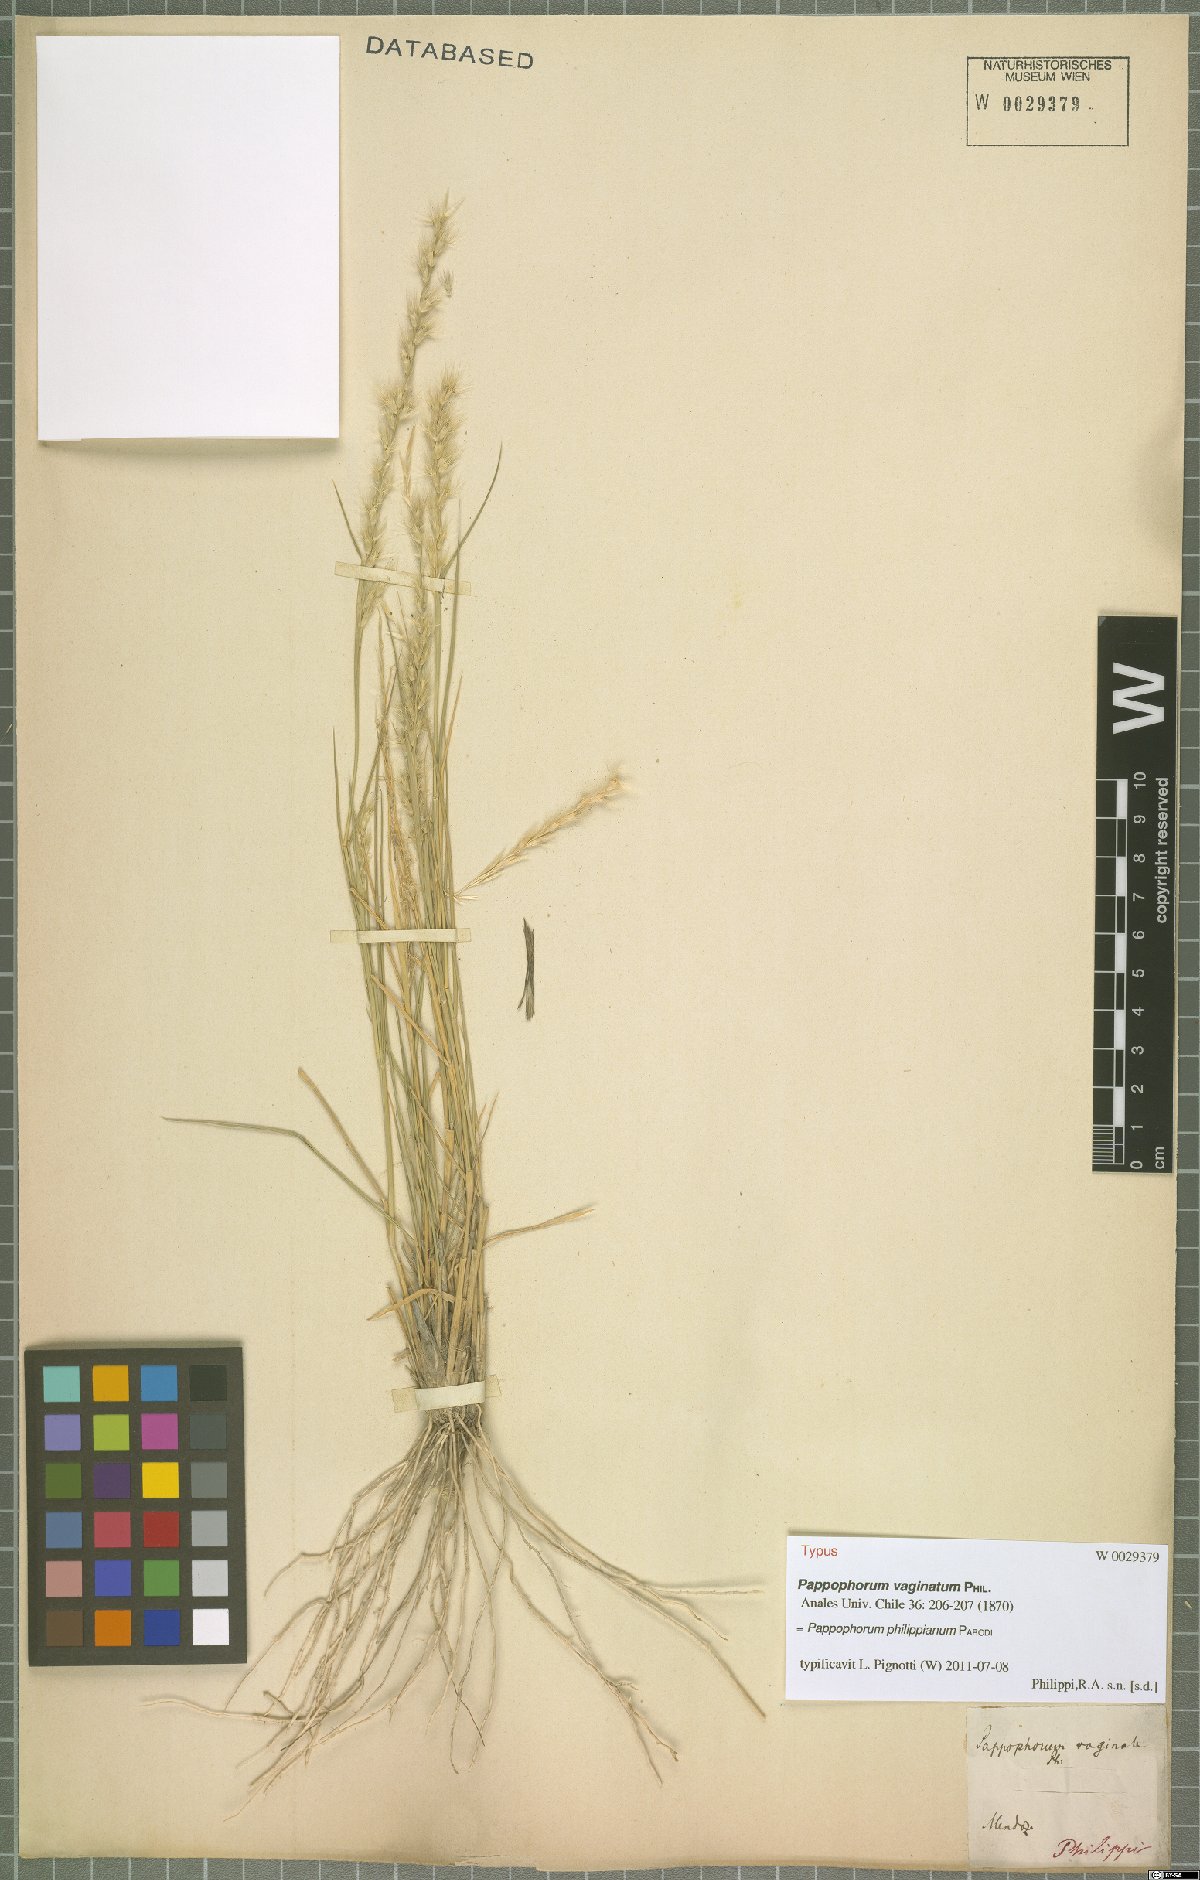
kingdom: Plantae
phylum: Tracheophyta
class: Liliopsida
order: Poales
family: Poaceae
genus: Pappophorum
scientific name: Pappophorum philippianum
